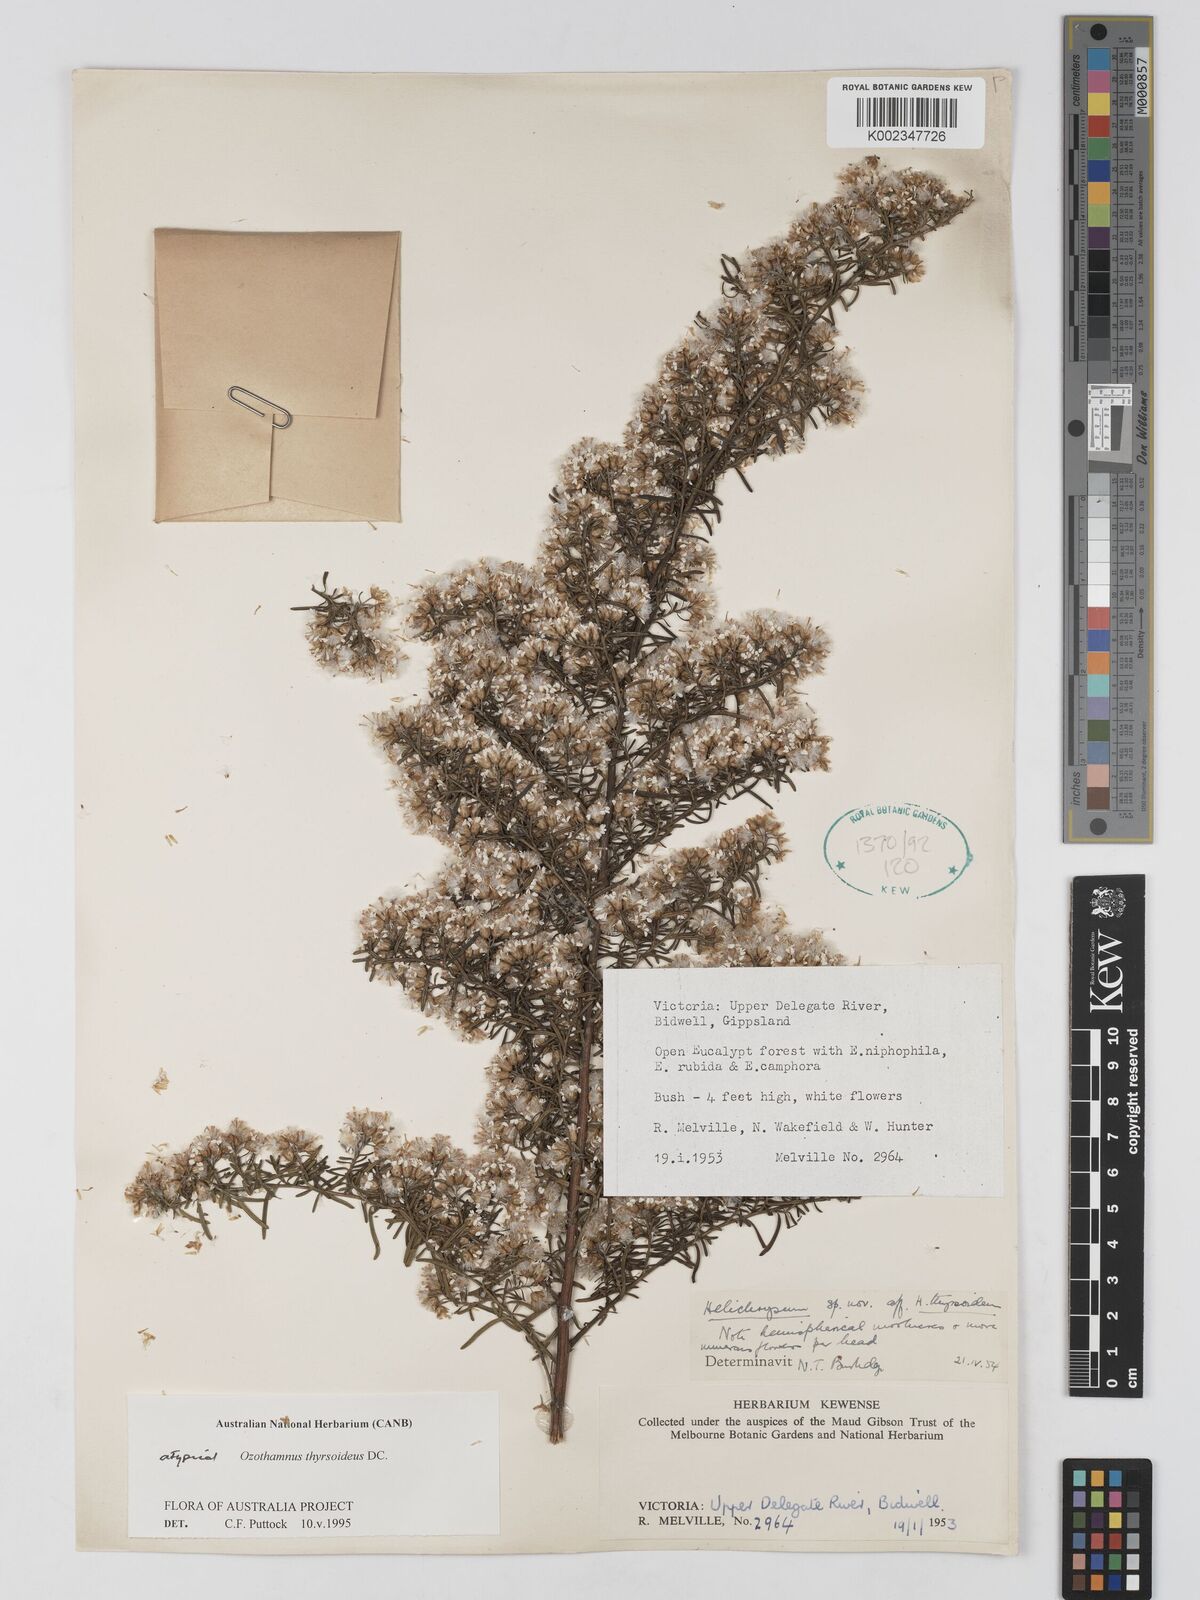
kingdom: Plantae
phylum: Tracheophyta
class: Magnoliopsida
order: Asterales
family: Asteraceae
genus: Ozothamnus
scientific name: Ozothamnus thyrsoideus
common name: Snow-in-summer
